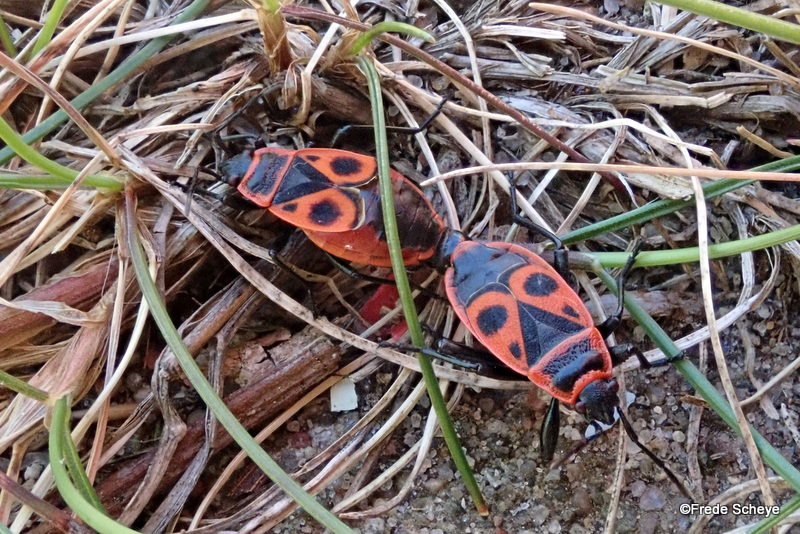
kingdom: Animalia
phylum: Arthropoda
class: Insecta
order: Hemiptera
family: Pyrrhocoridae
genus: Pyrrhocoris
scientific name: Pyrrhocoris apterus
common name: Ildtæge
